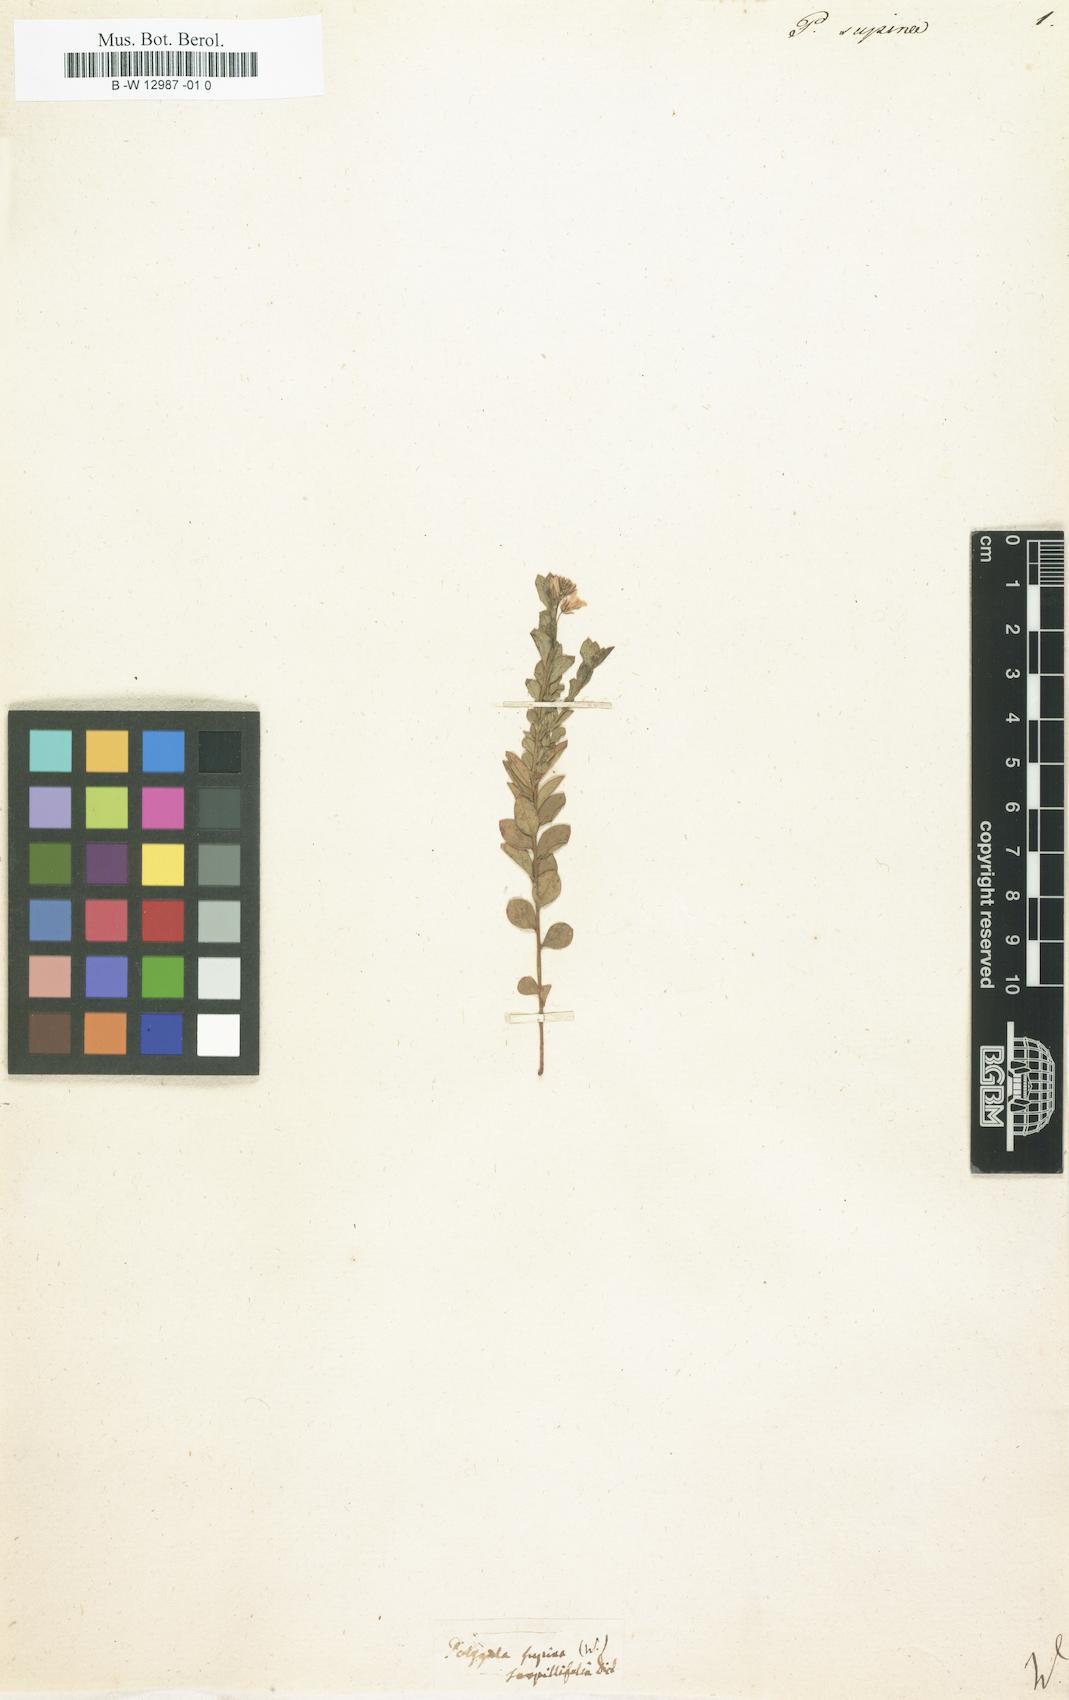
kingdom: Plantae
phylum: Tracheophyta
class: Magnoliopsida
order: Fabales
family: Polygalaceae
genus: Polygala
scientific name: Polygala supina
